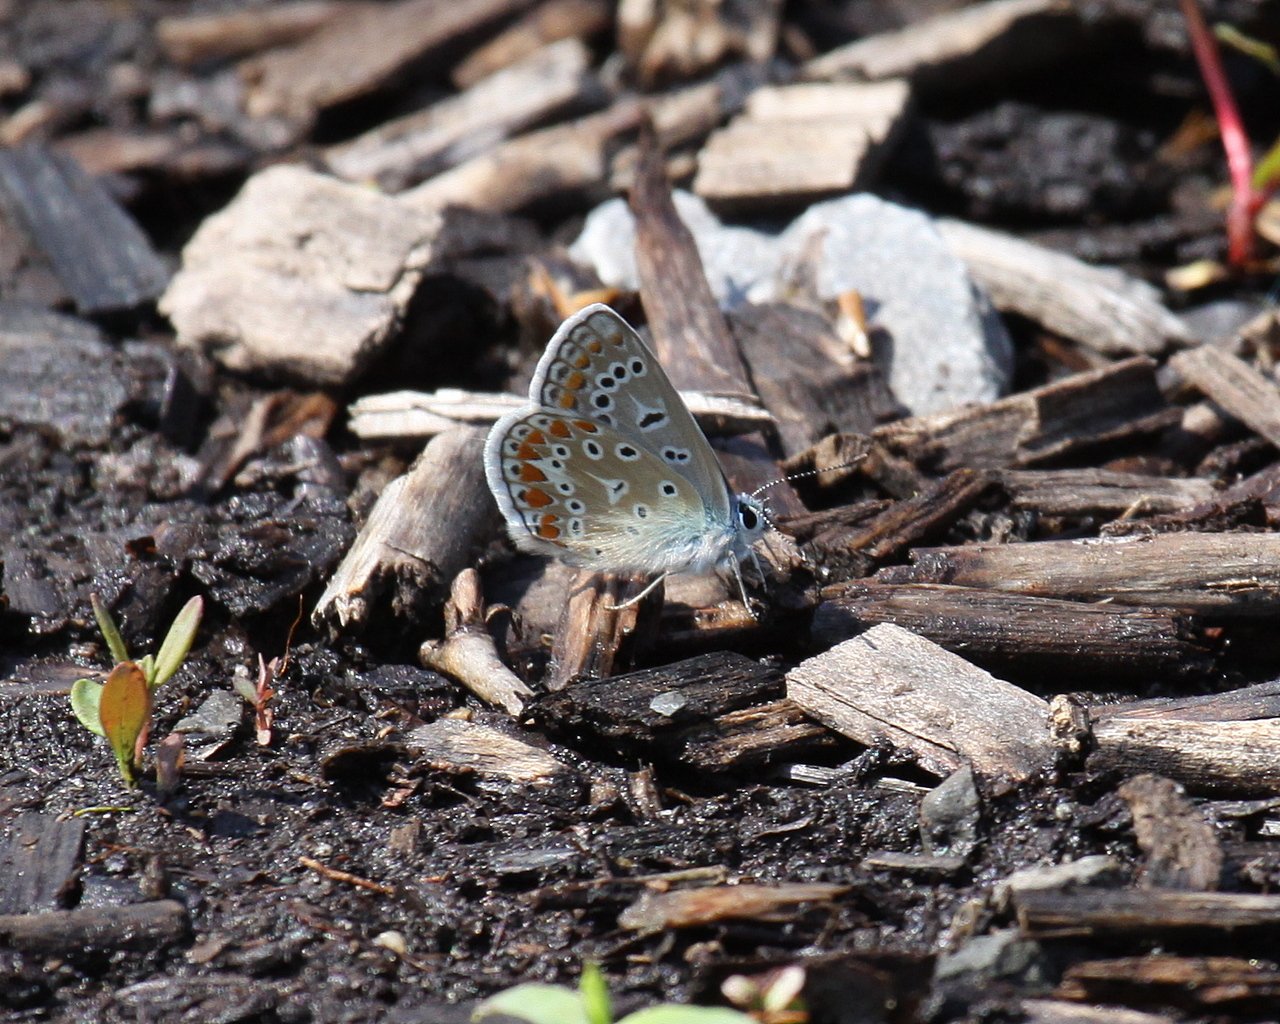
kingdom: Animalia
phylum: Arthropoda
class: Insecta
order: Lepidoptera
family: Lycaenidae
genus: Polyommatus
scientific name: Polyommatus icarus
